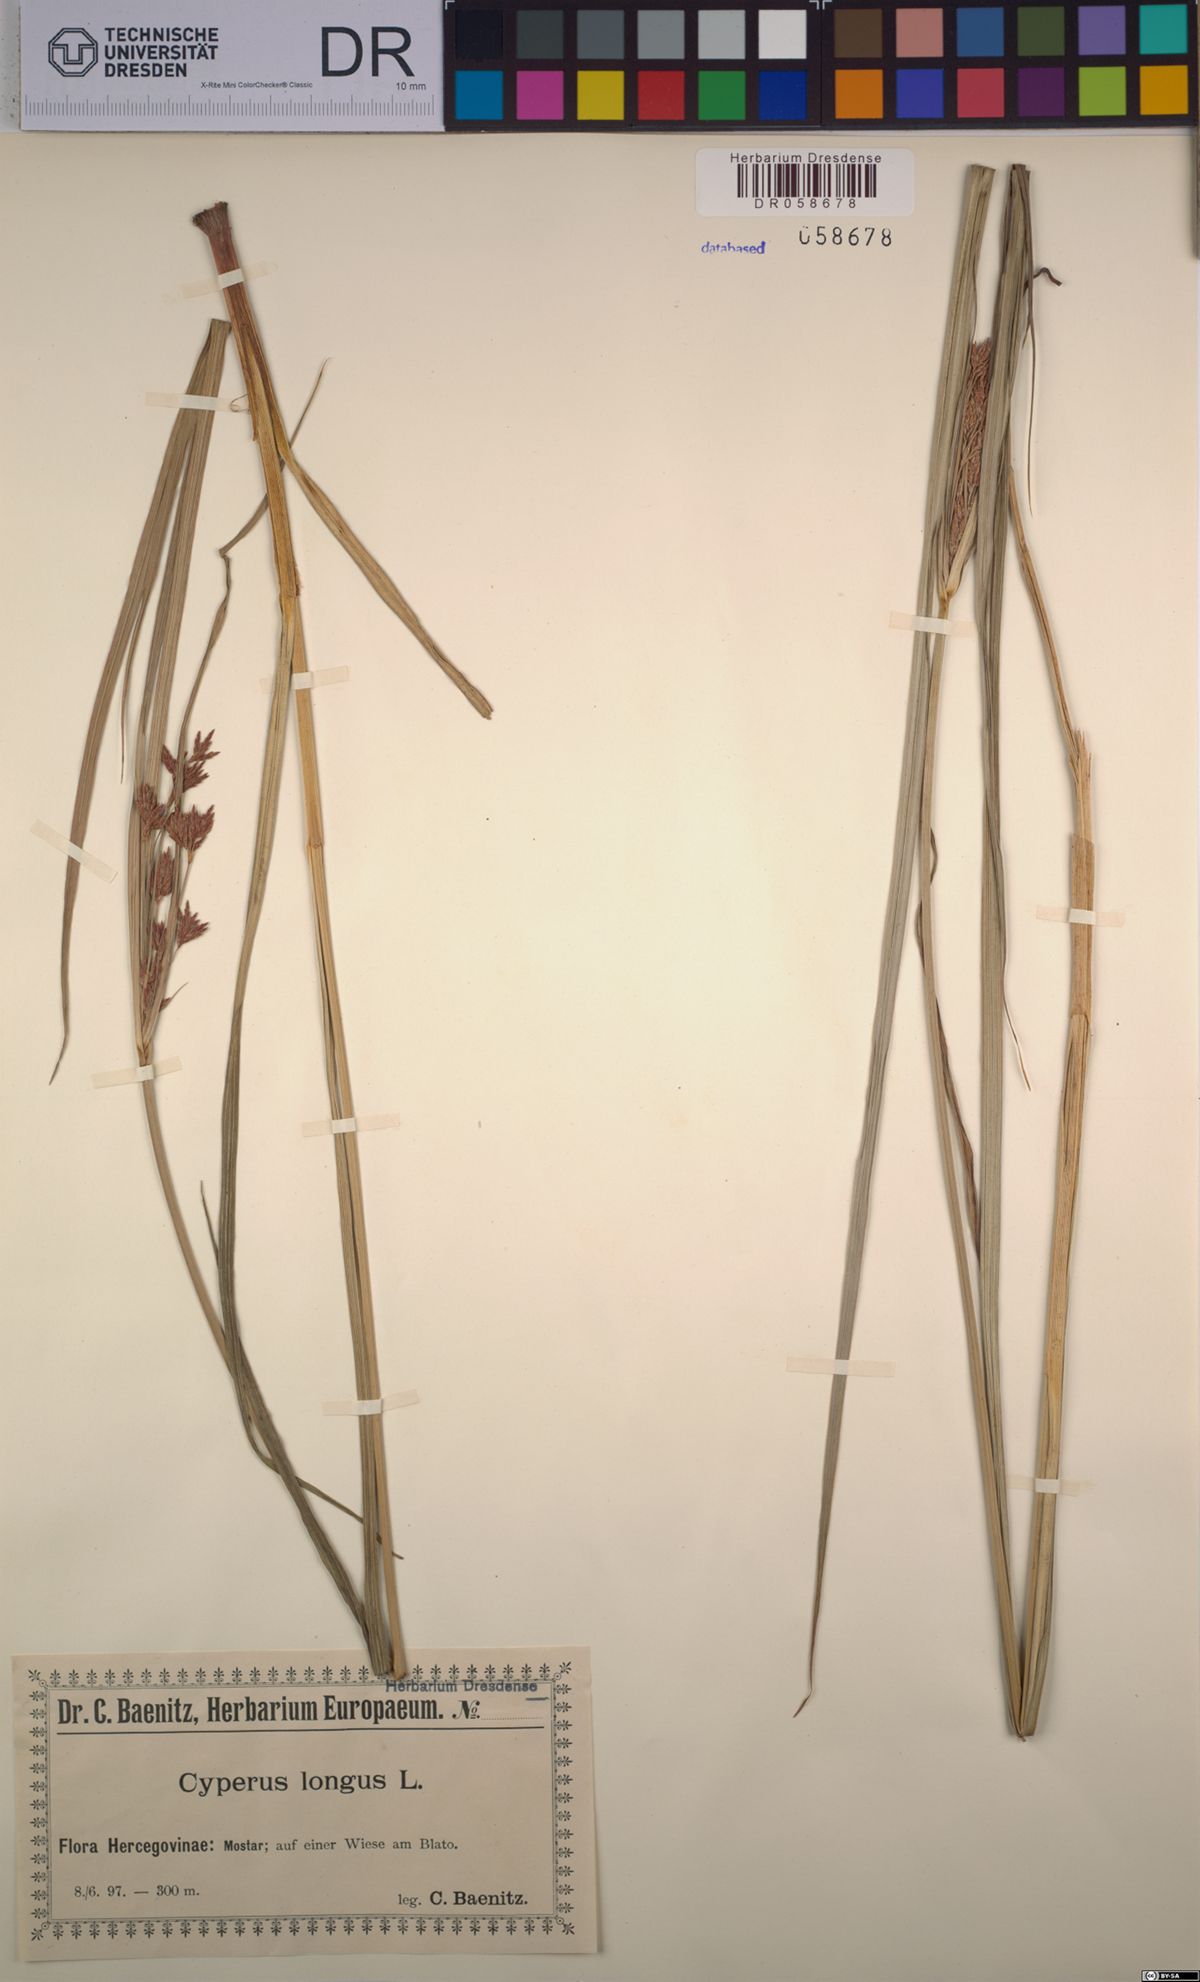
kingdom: Plantae
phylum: Tracheophyta
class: Liliopsida
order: Poales
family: Cyperaceae
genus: Cyperus
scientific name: Cyperus longus
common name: Galingale
